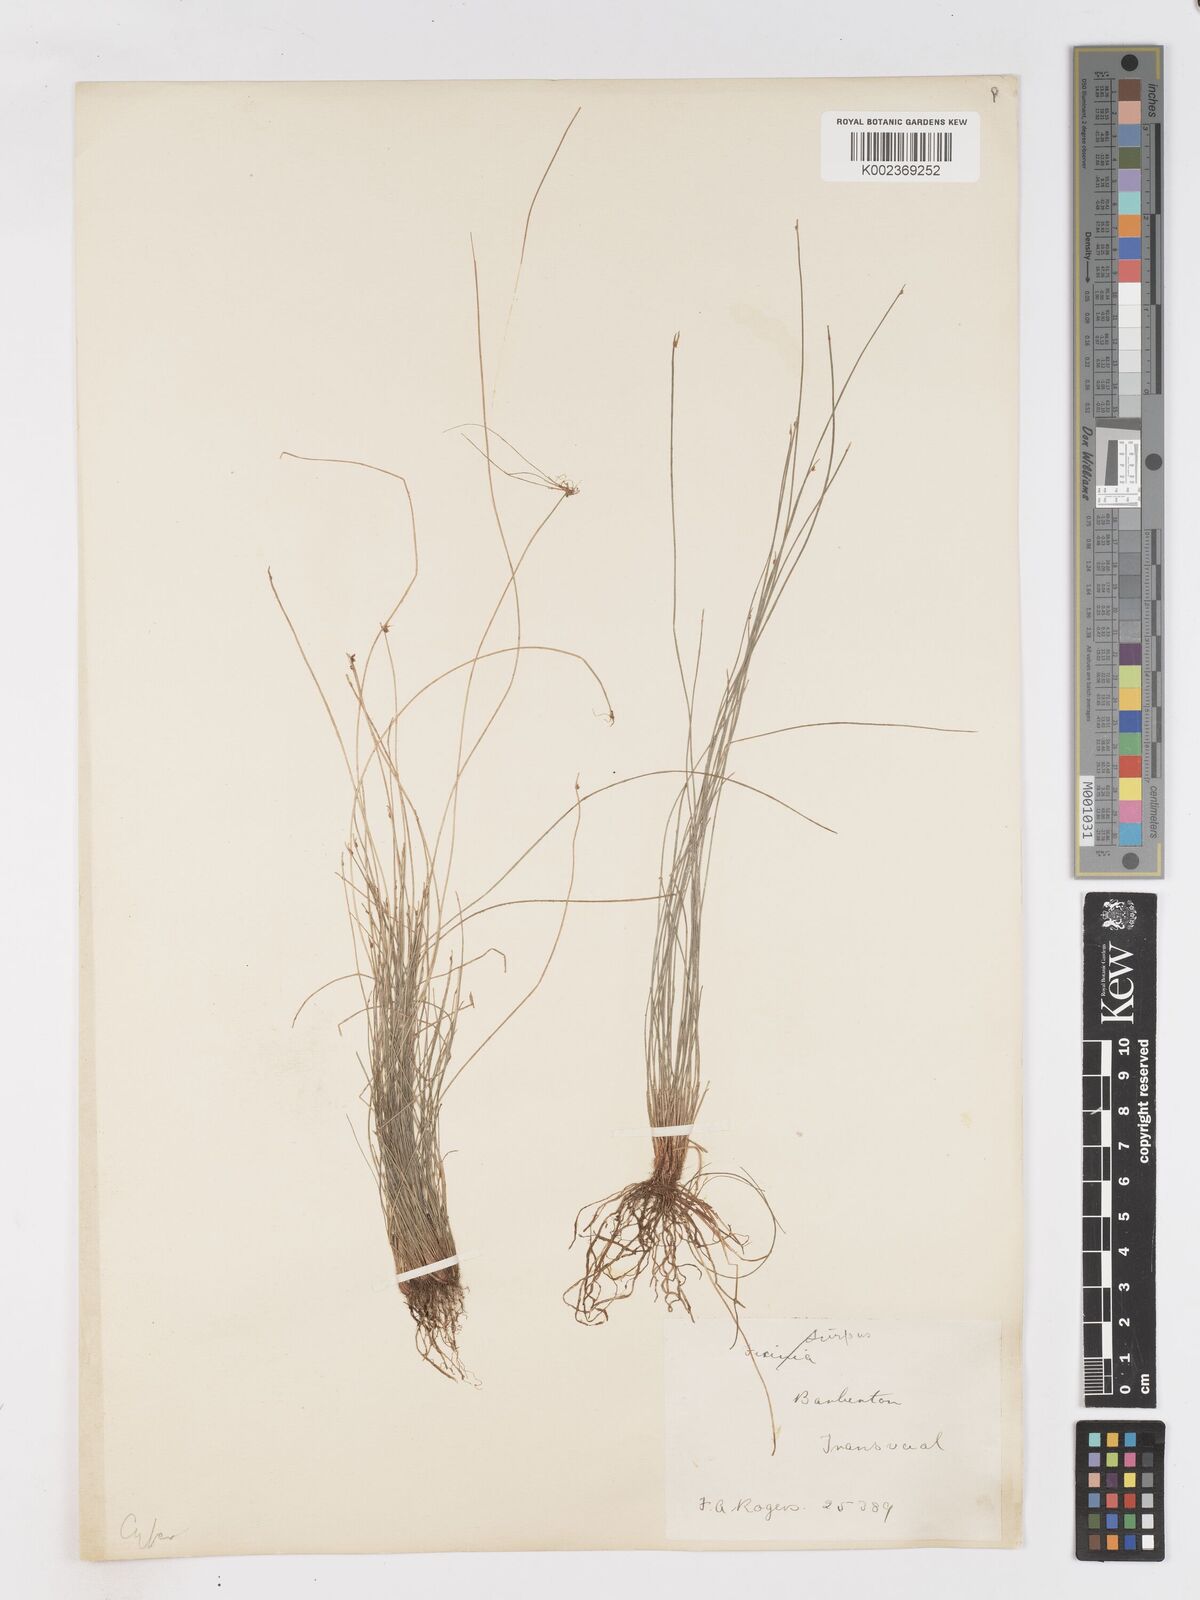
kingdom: Plantae
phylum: Tracheophyta
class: Liliopsida
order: Poales
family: Cyperaceae
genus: Isolepis
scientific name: Isolepis costata
